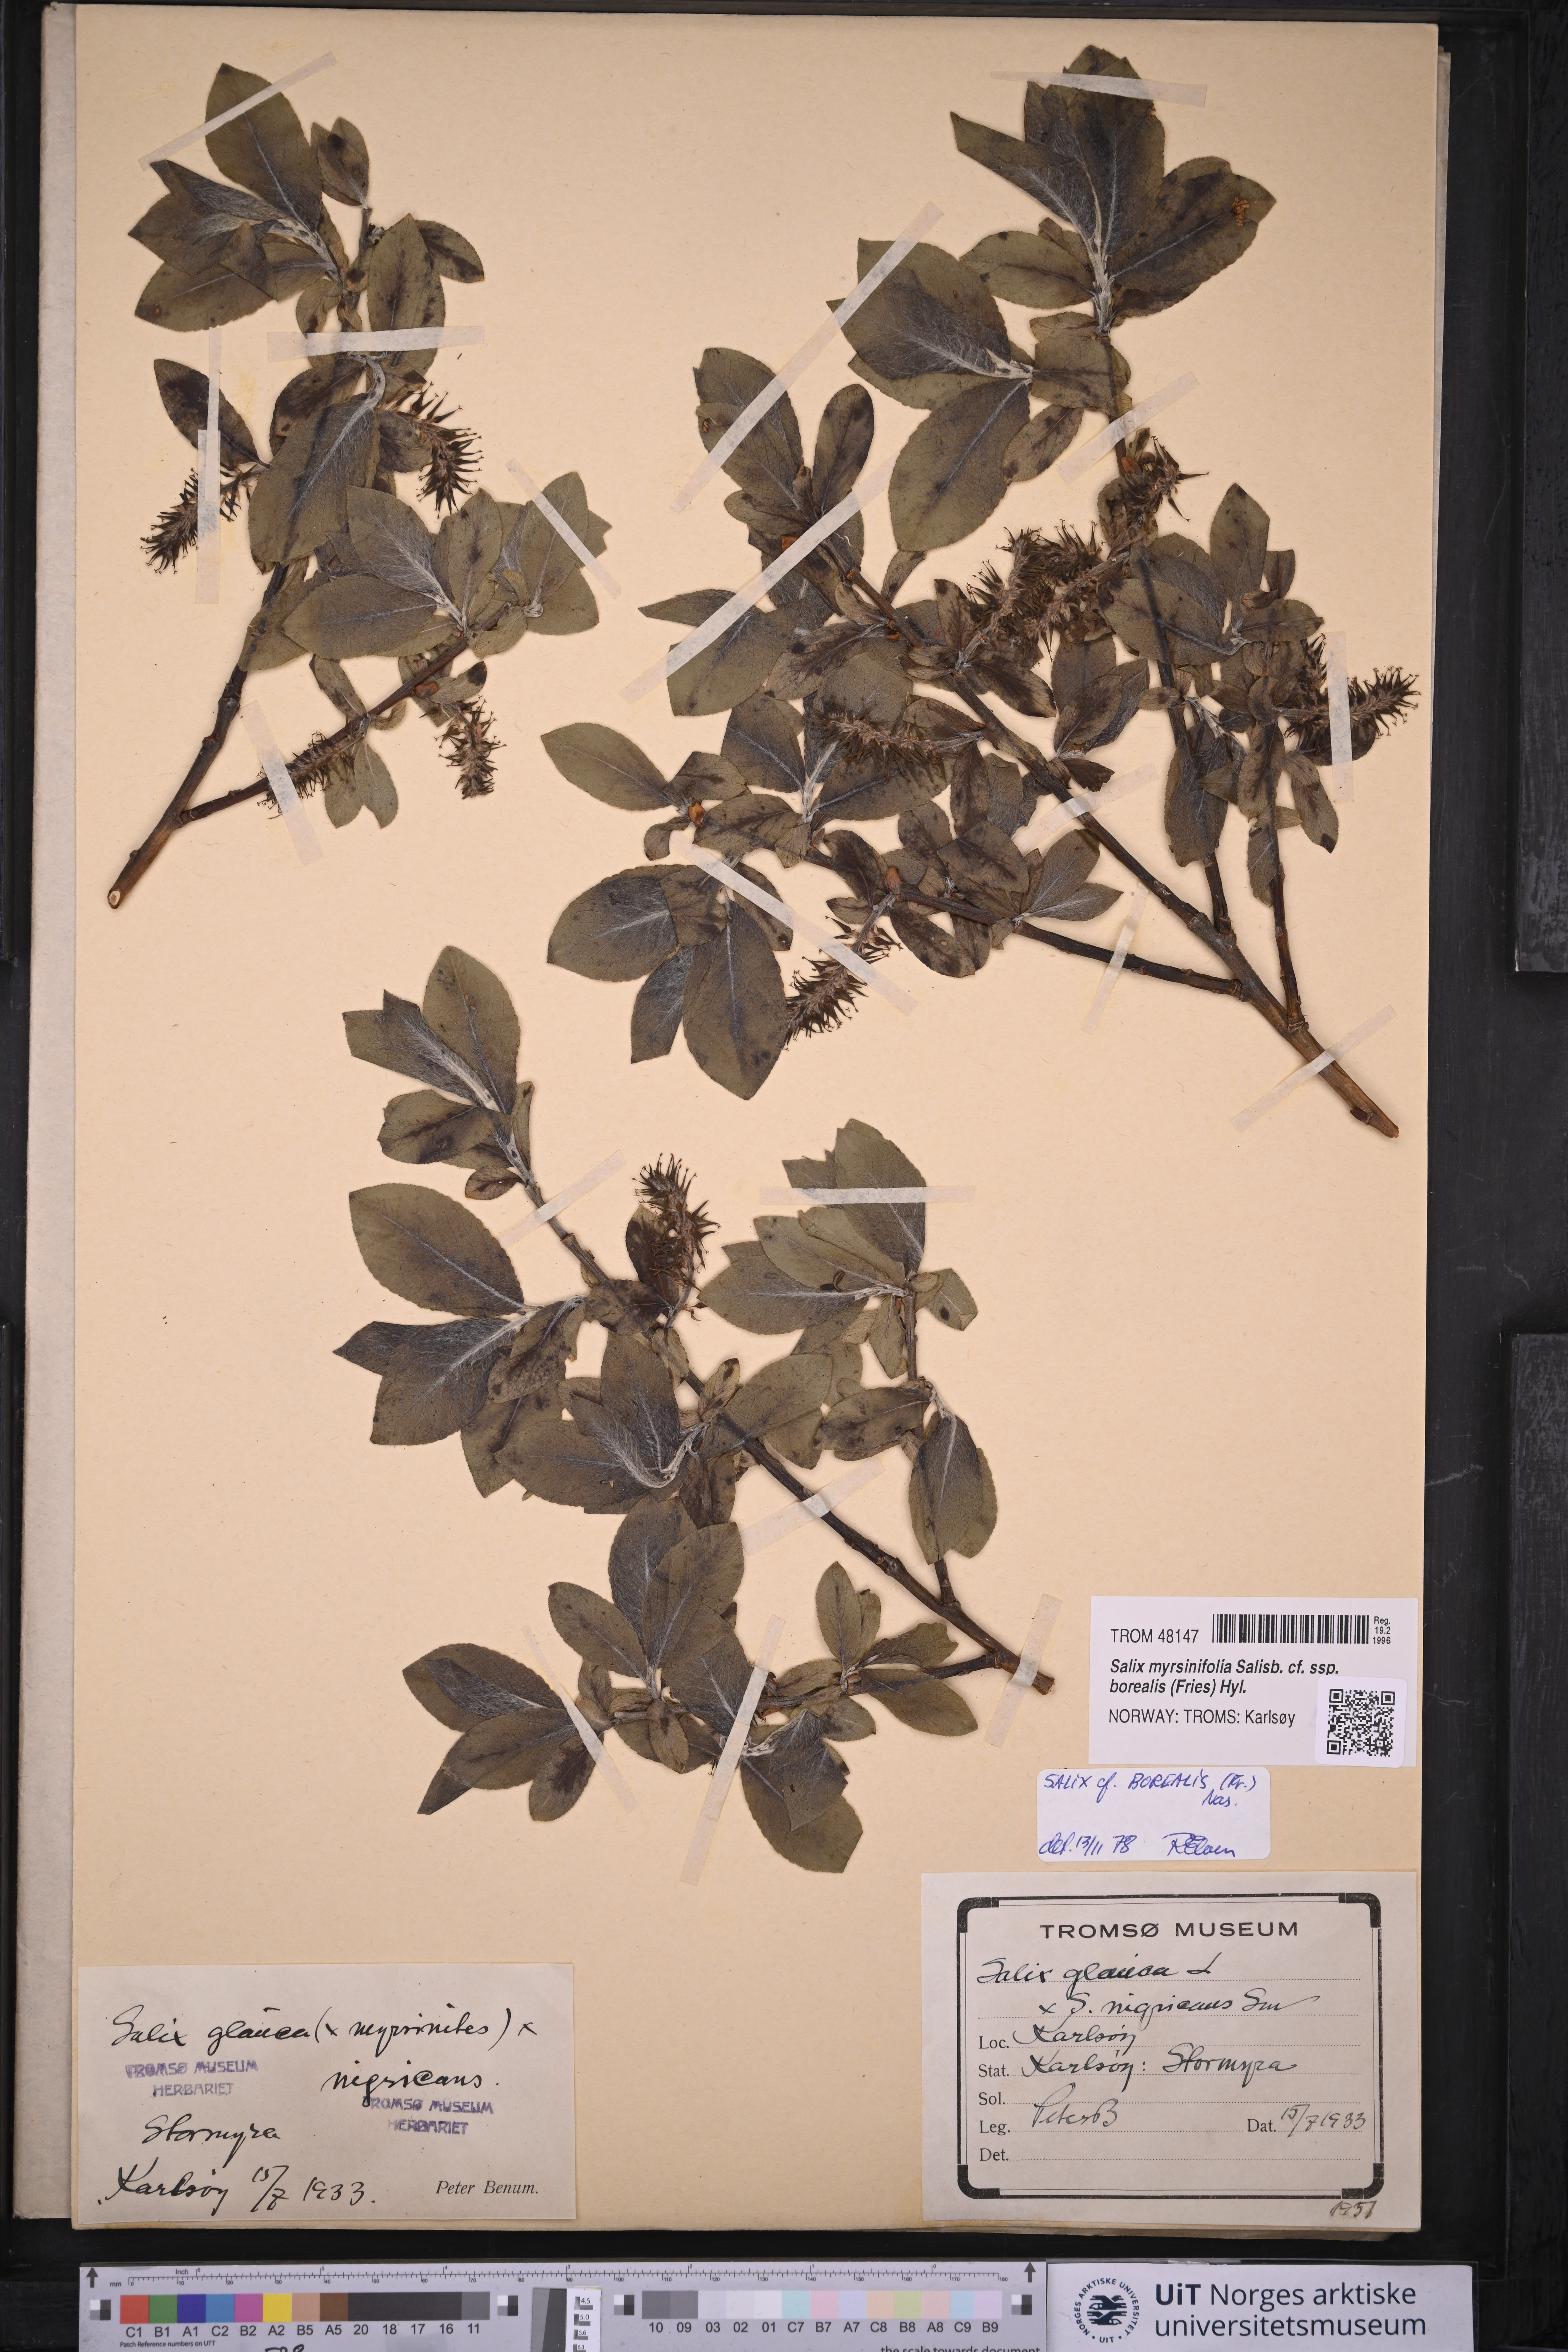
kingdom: Plantae
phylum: Tracheophyta
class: Magnoliopsida
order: Malpighiales
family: Salicaceae
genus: Salix
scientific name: Salix myrsinifolia
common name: Dark-leaved willow
